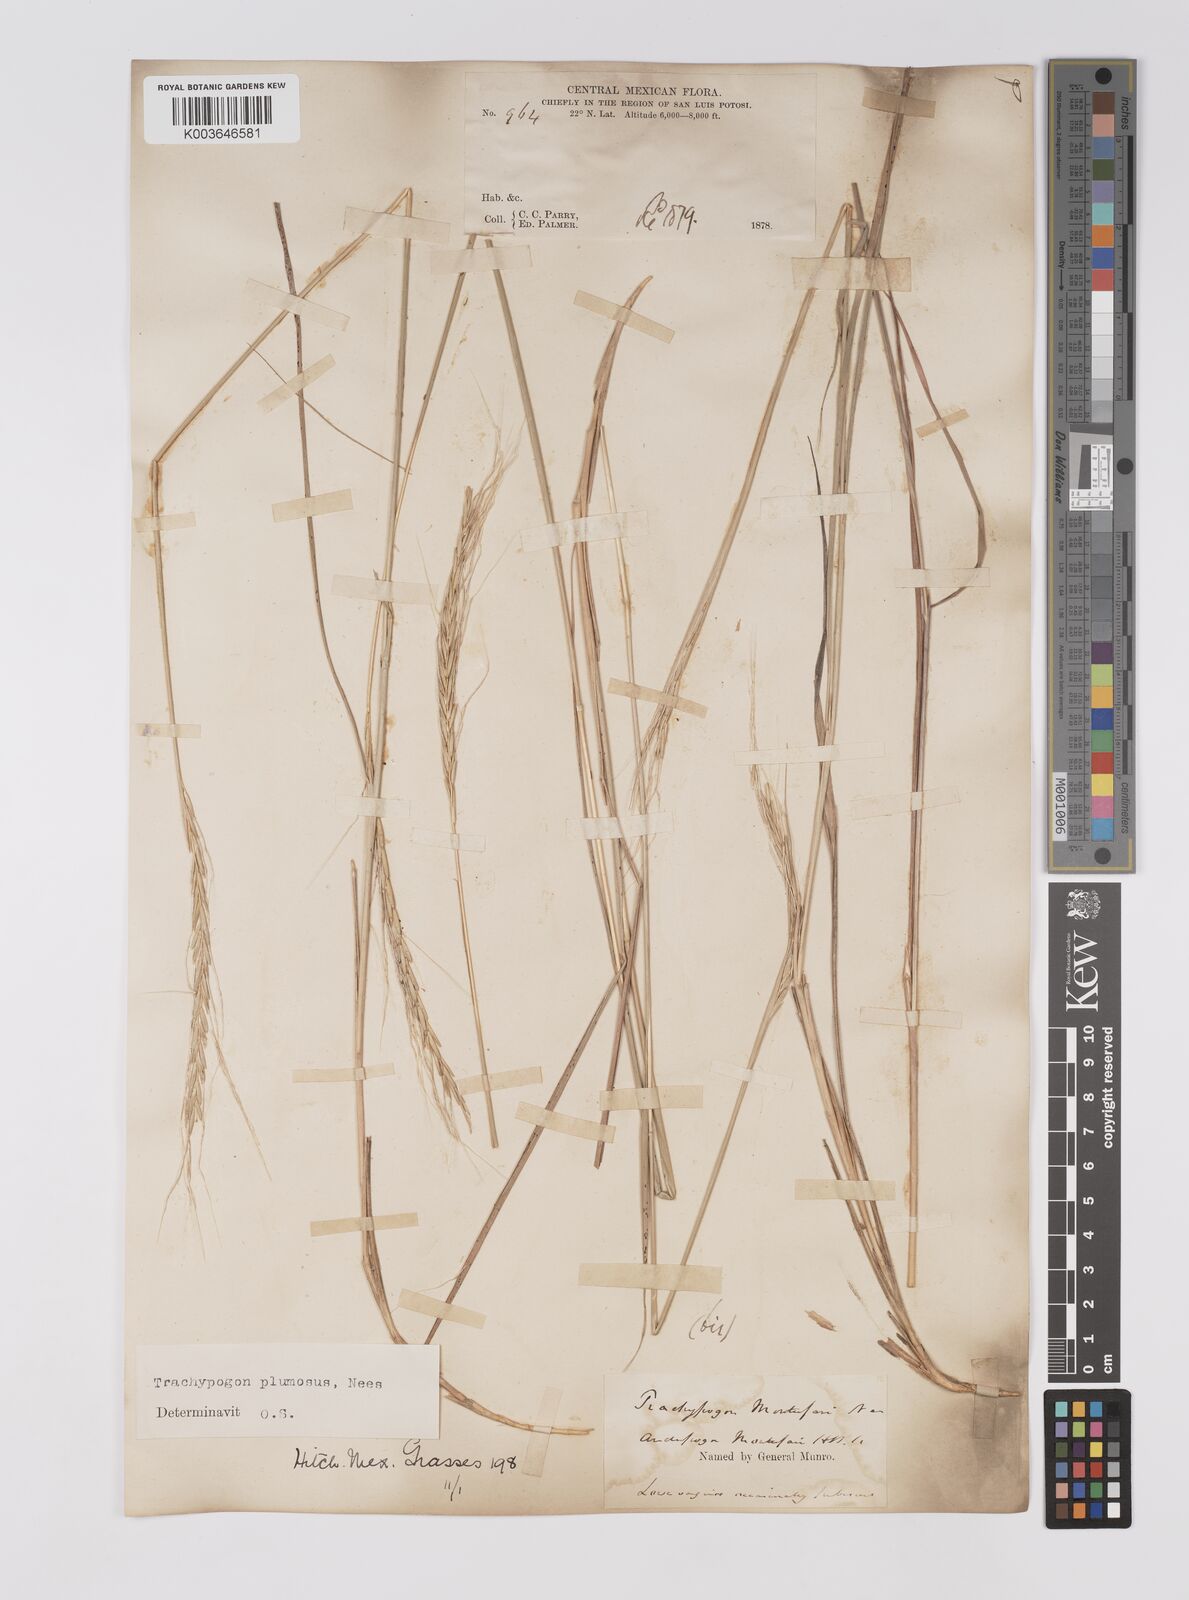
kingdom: Plantae
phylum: Tracheophyta
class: Liliopsida
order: Poales
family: Poaceae
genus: Trachypogon
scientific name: Trachypogon spicatus
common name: Crinkle-awn
